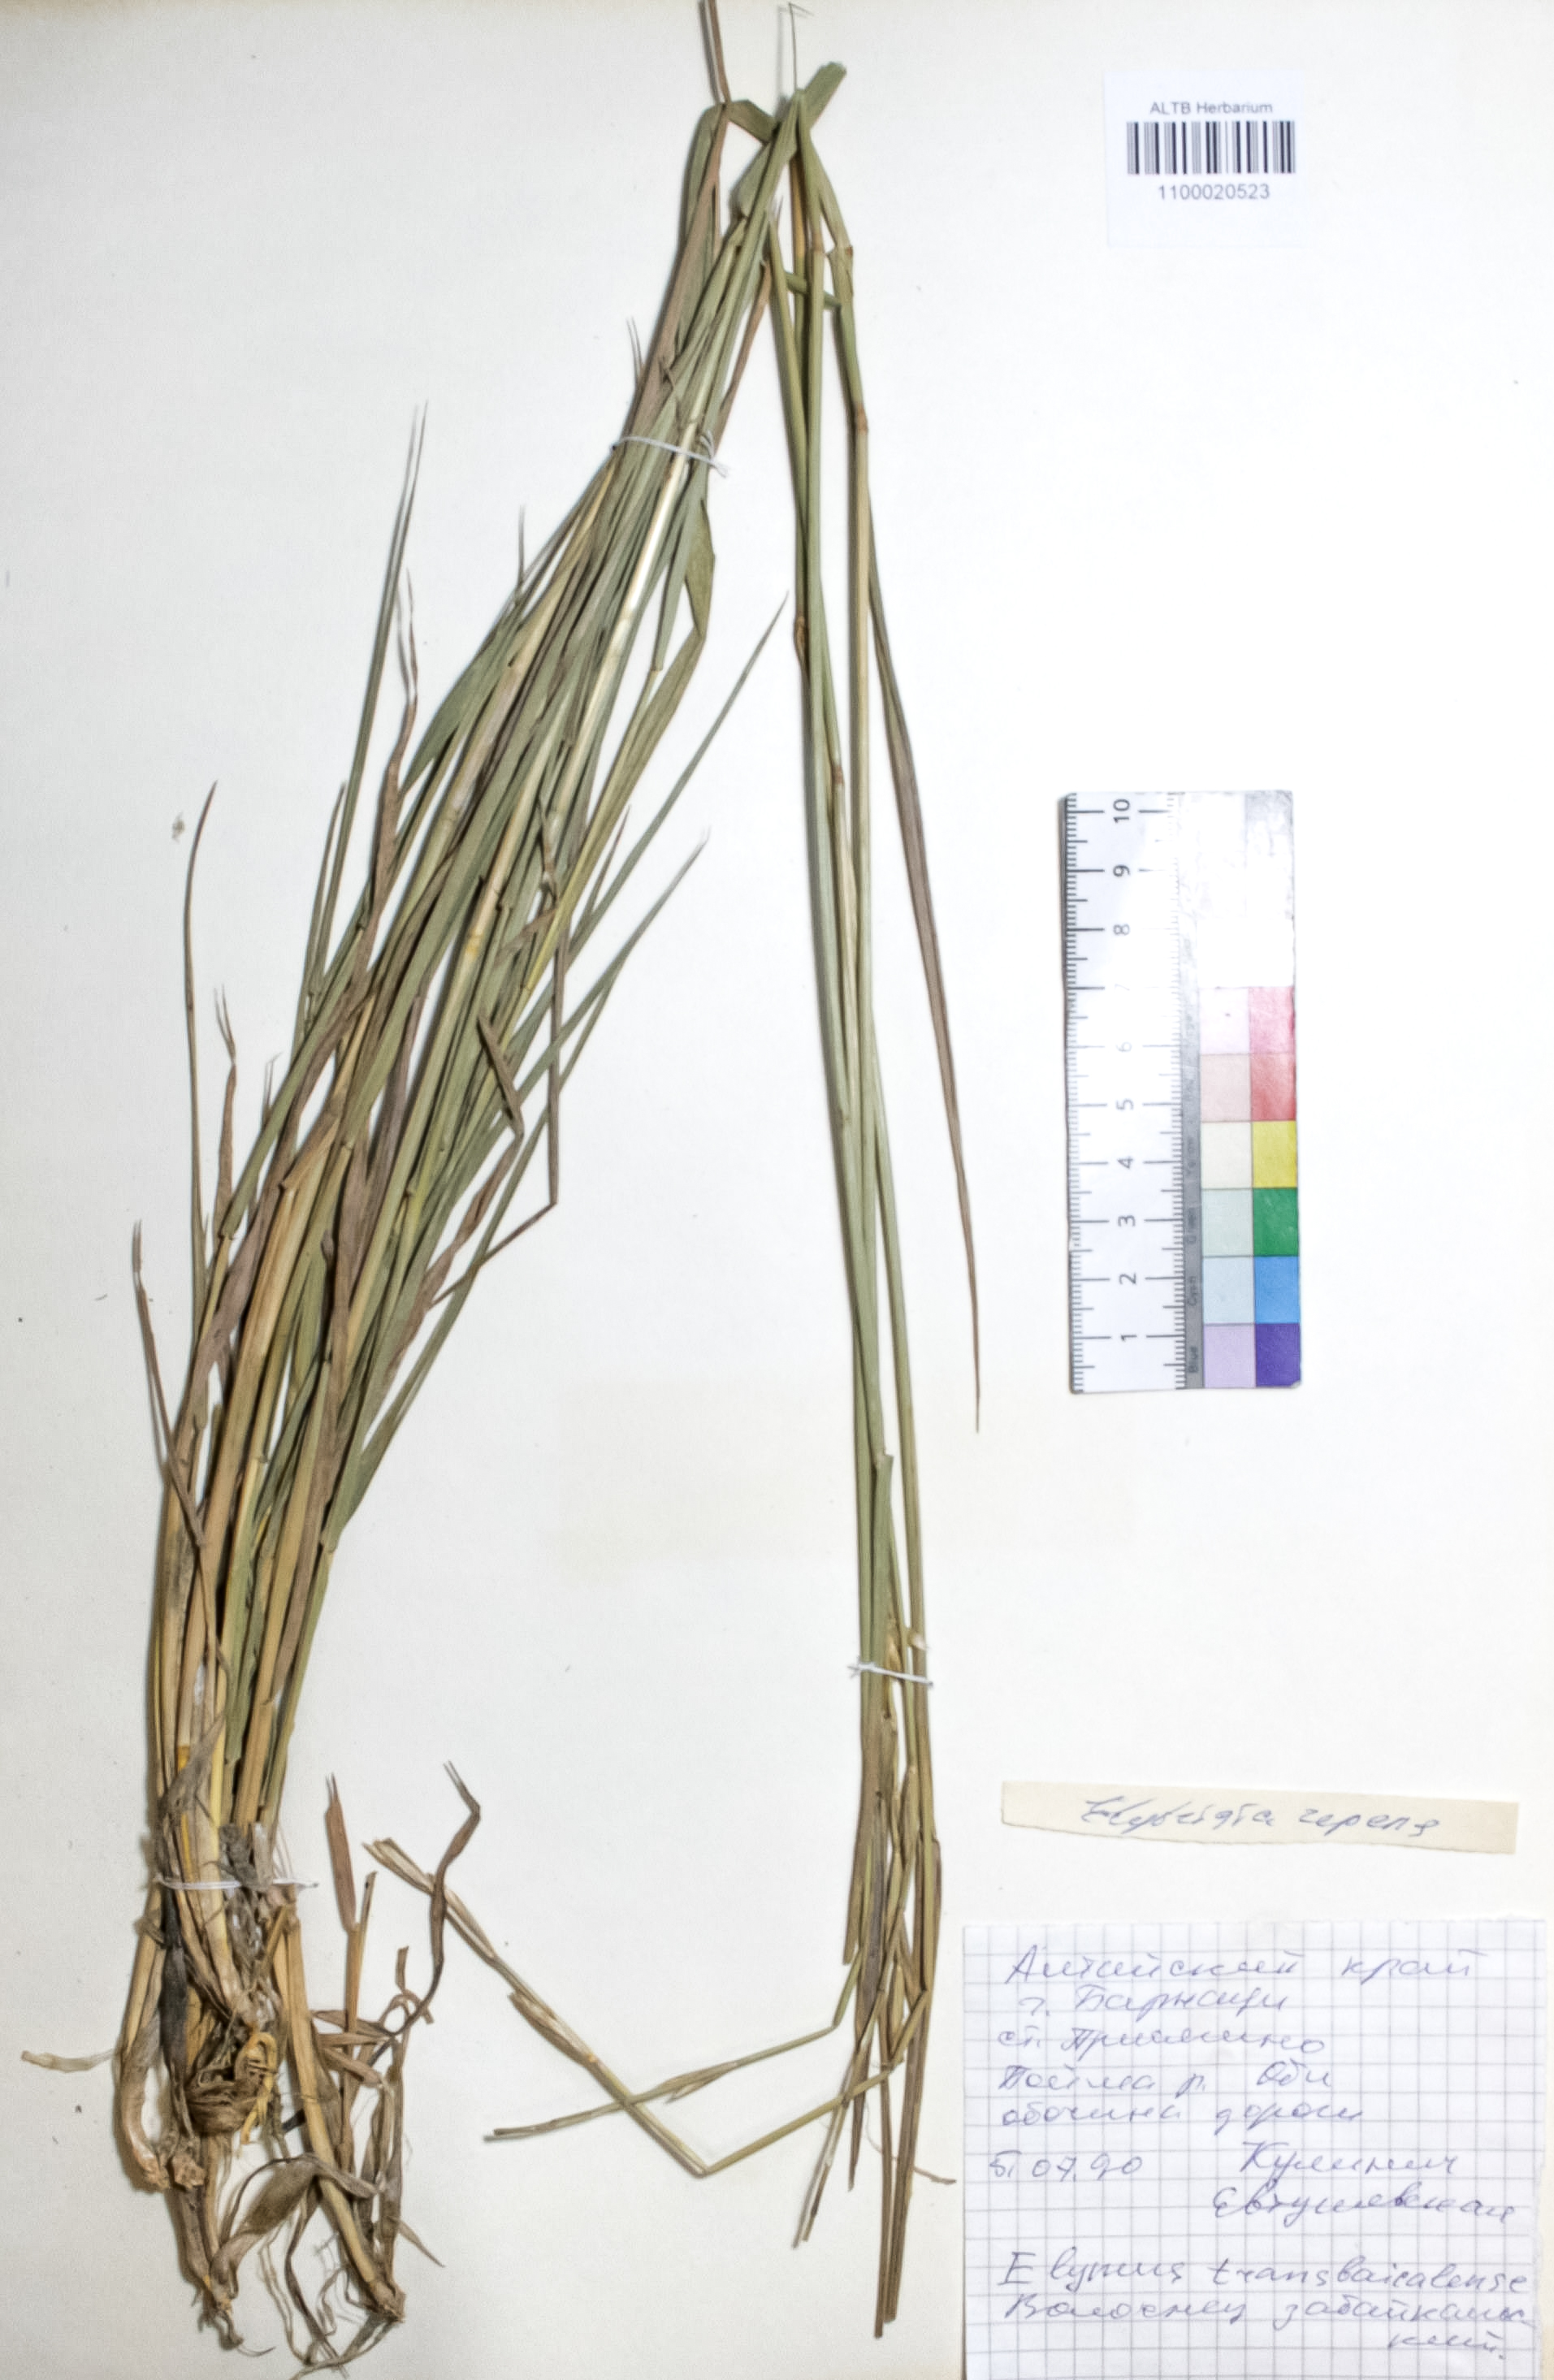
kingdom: Plantae
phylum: Tracheophyta
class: Liliopsida
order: Poales
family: Poaceae
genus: Elymus
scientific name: Elymus repens
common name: Quackgrass
